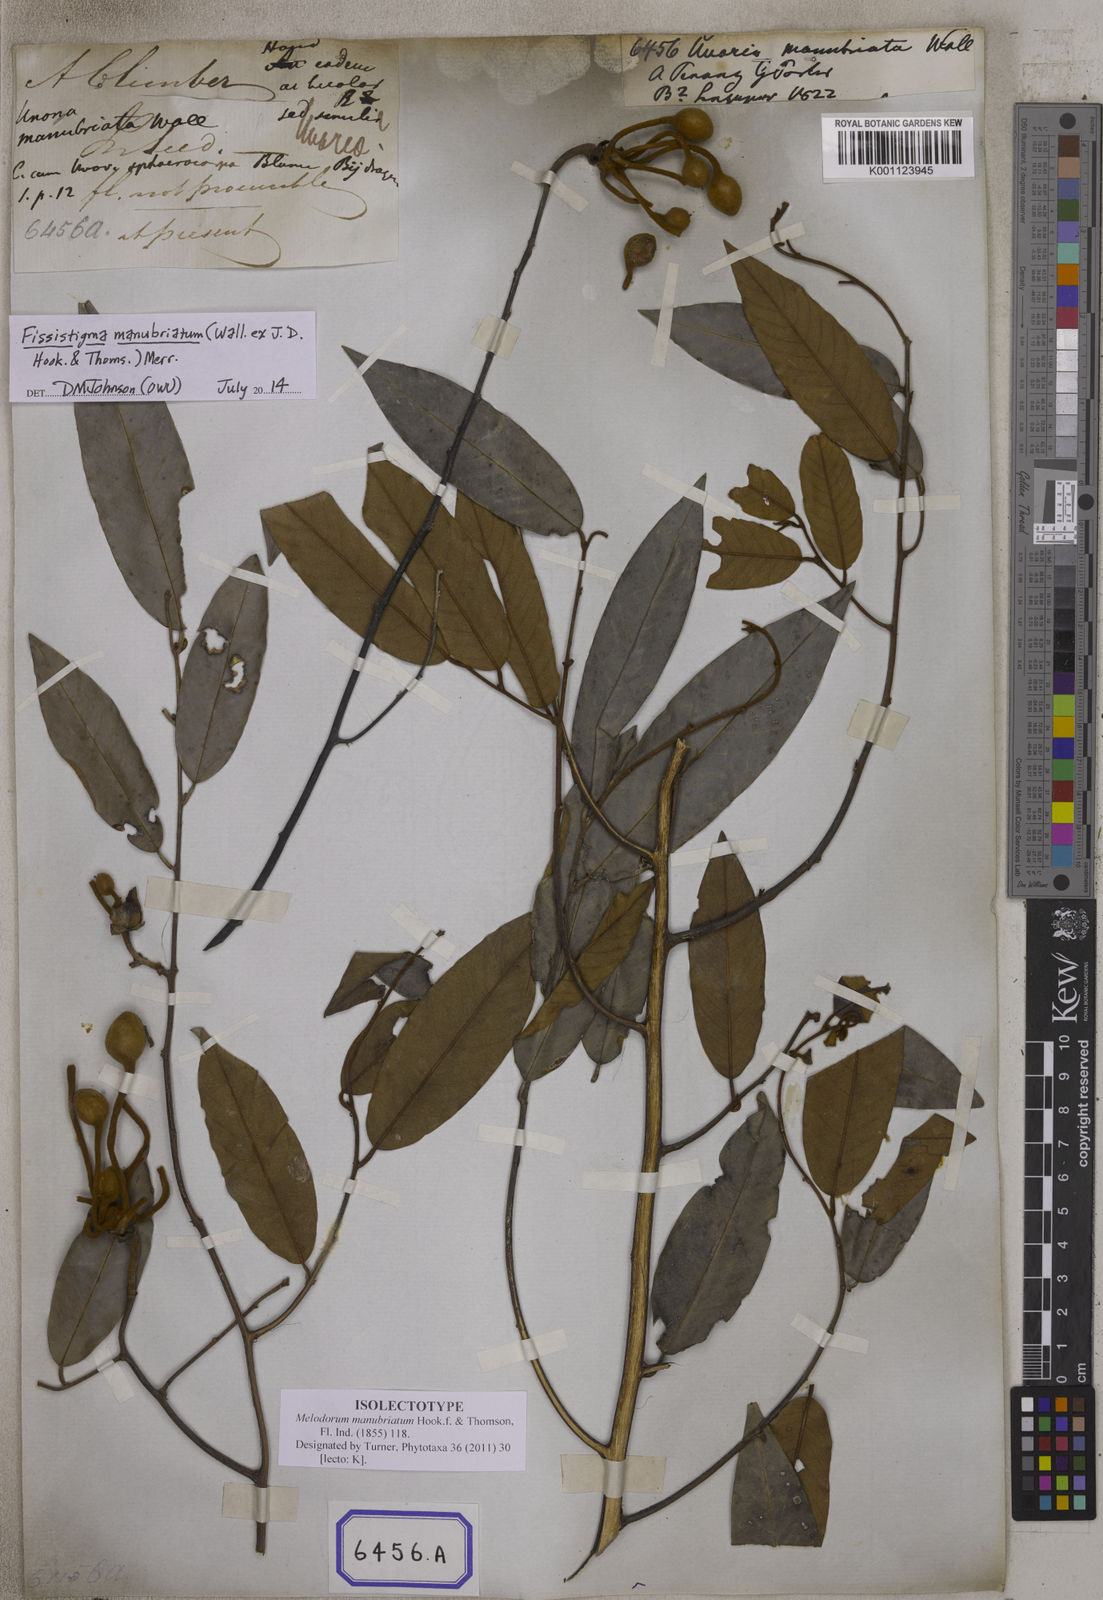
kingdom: Plantae
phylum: Tracheophyta
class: Magnoliopsida
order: Magnoliales
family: Annonaceae
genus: Fissistigma
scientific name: Fissistigma manubriatum
